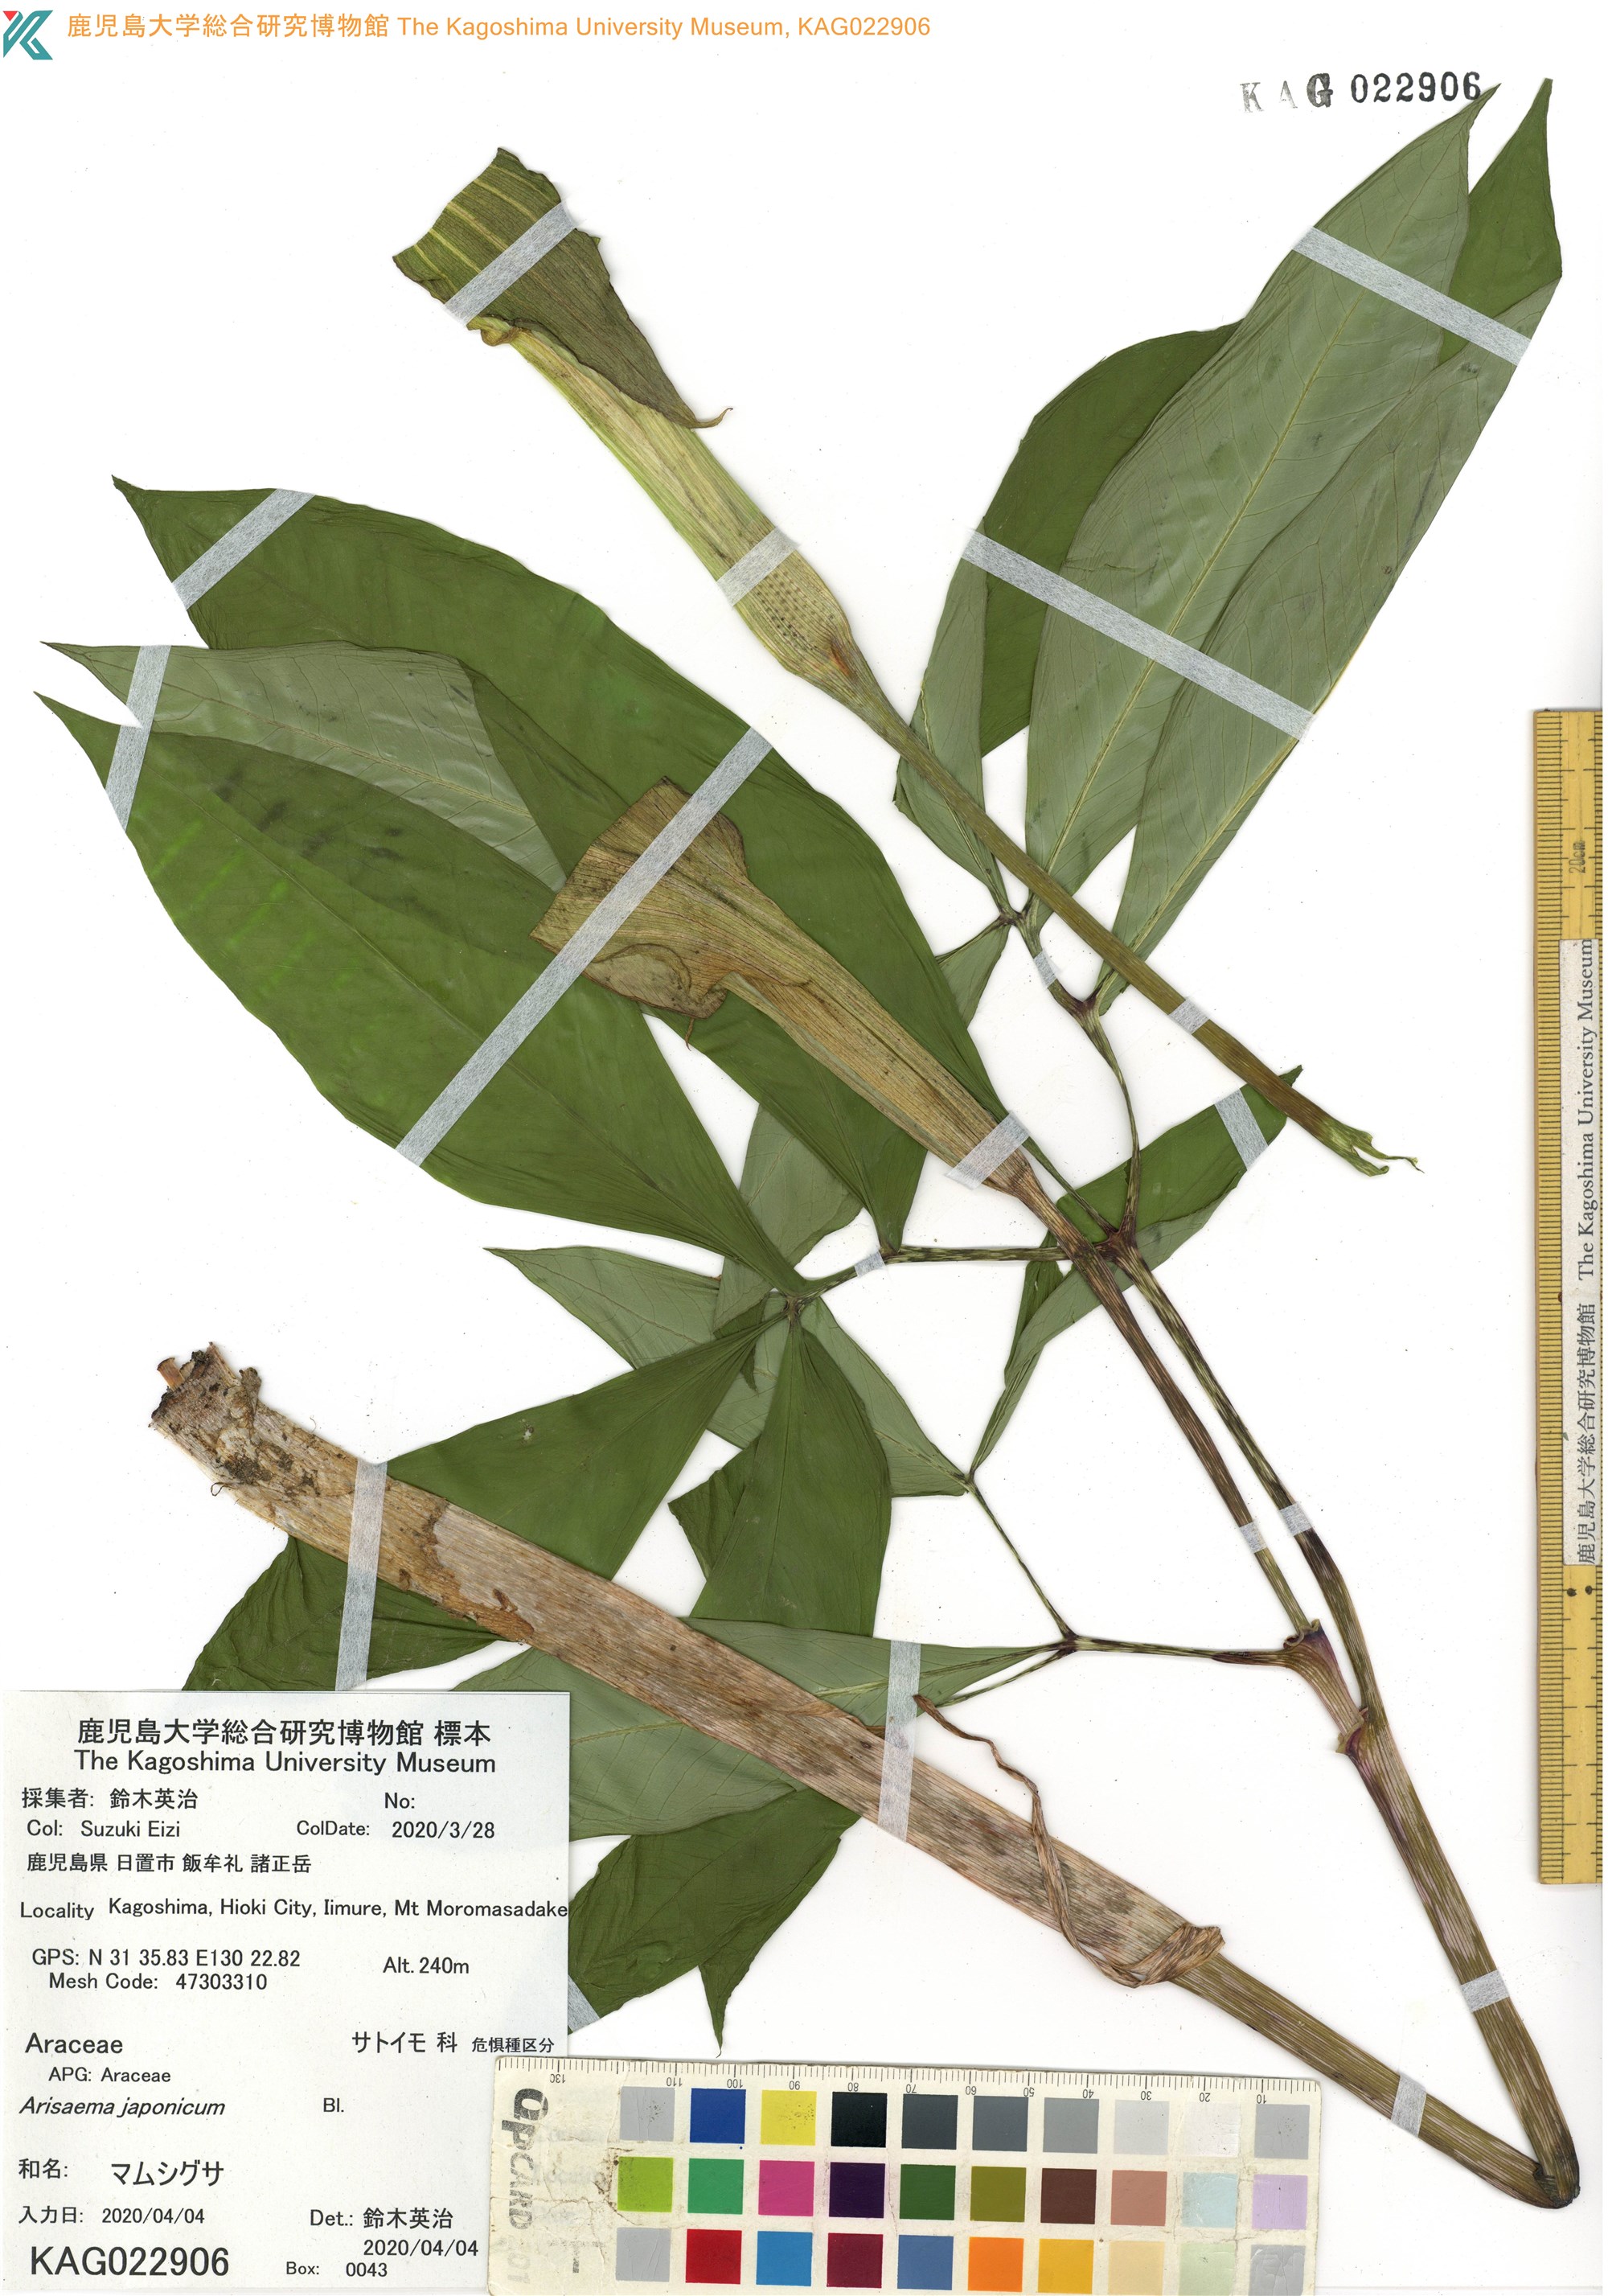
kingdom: Plantae
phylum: Tracheophyta
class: Liliopsida
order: Alismatales
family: Araceae
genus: Arisaema
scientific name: Arisaema japonicum
